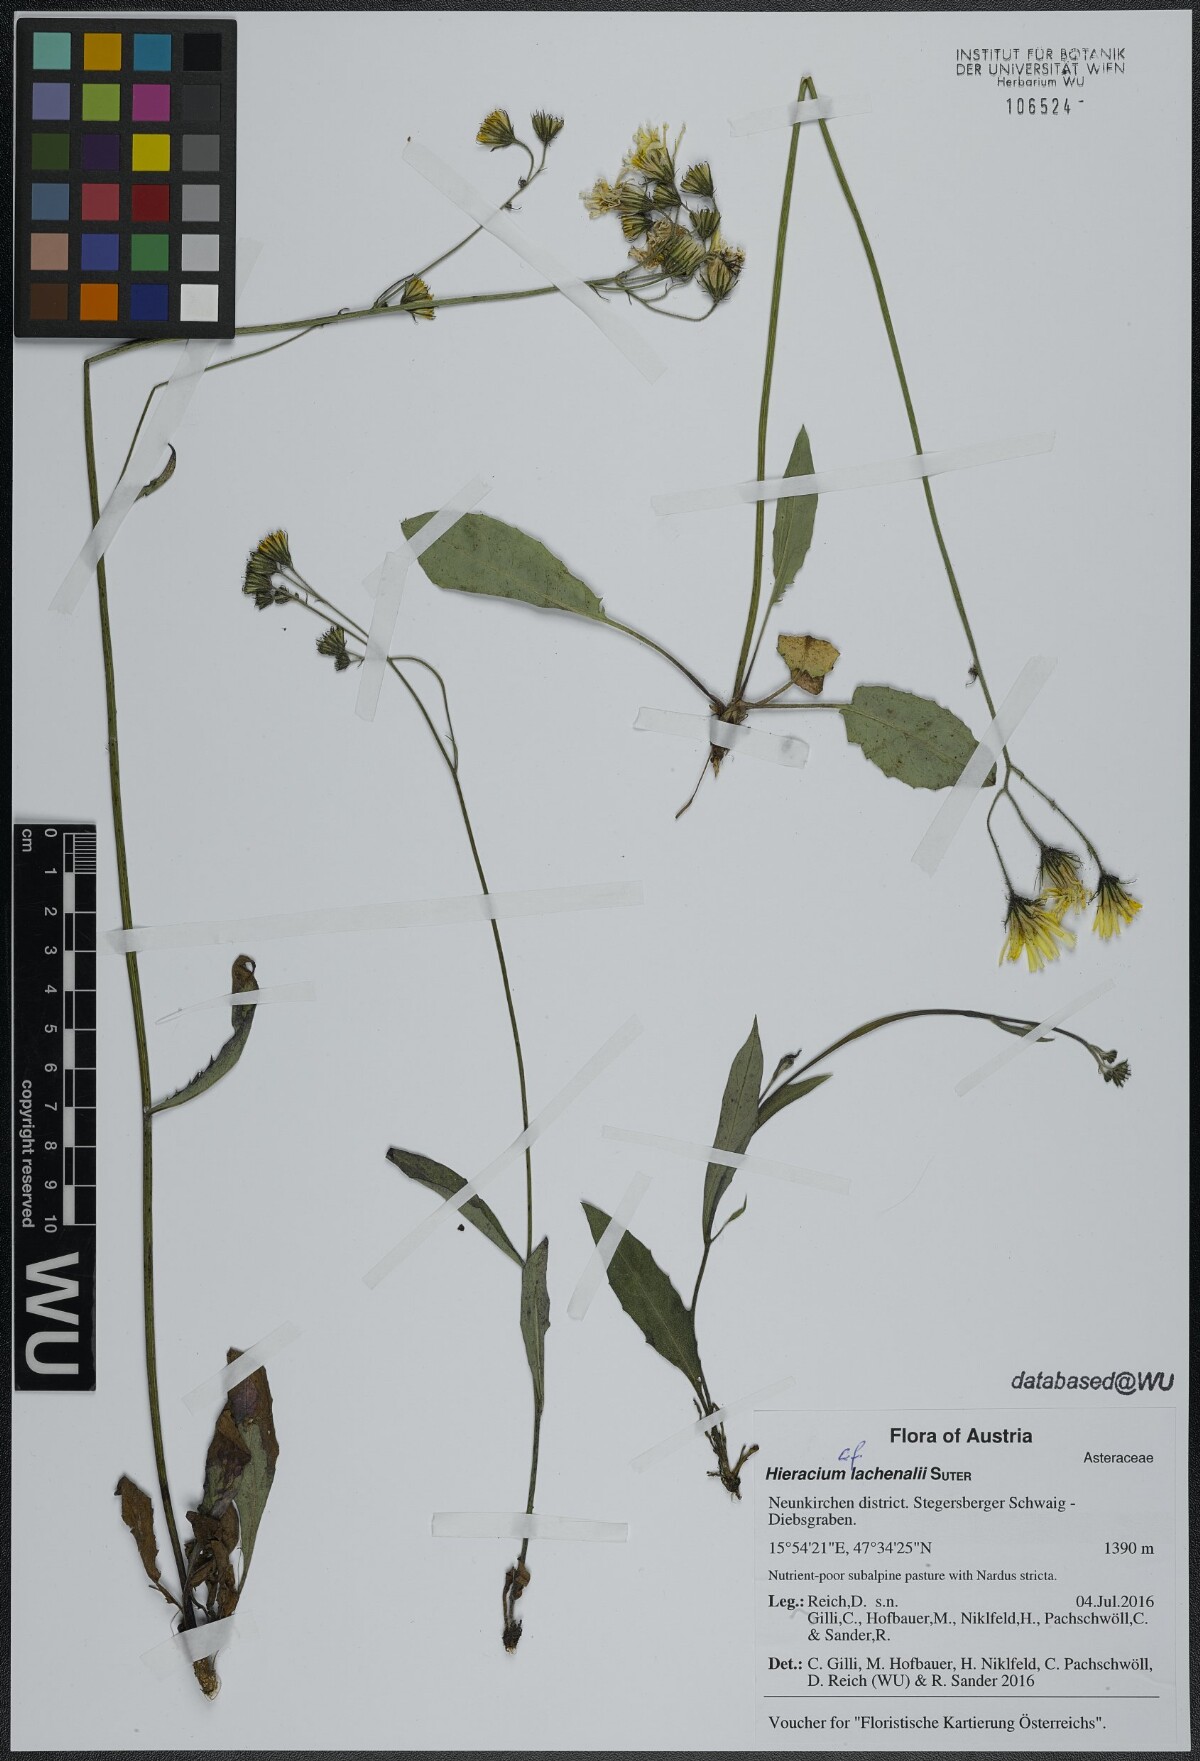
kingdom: Plantae
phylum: Tracheophyta
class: Magnoliopsida
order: Asterales
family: Asteraceae
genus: Hieracium
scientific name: Hieracium lachenalii
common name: Common hawkweed
